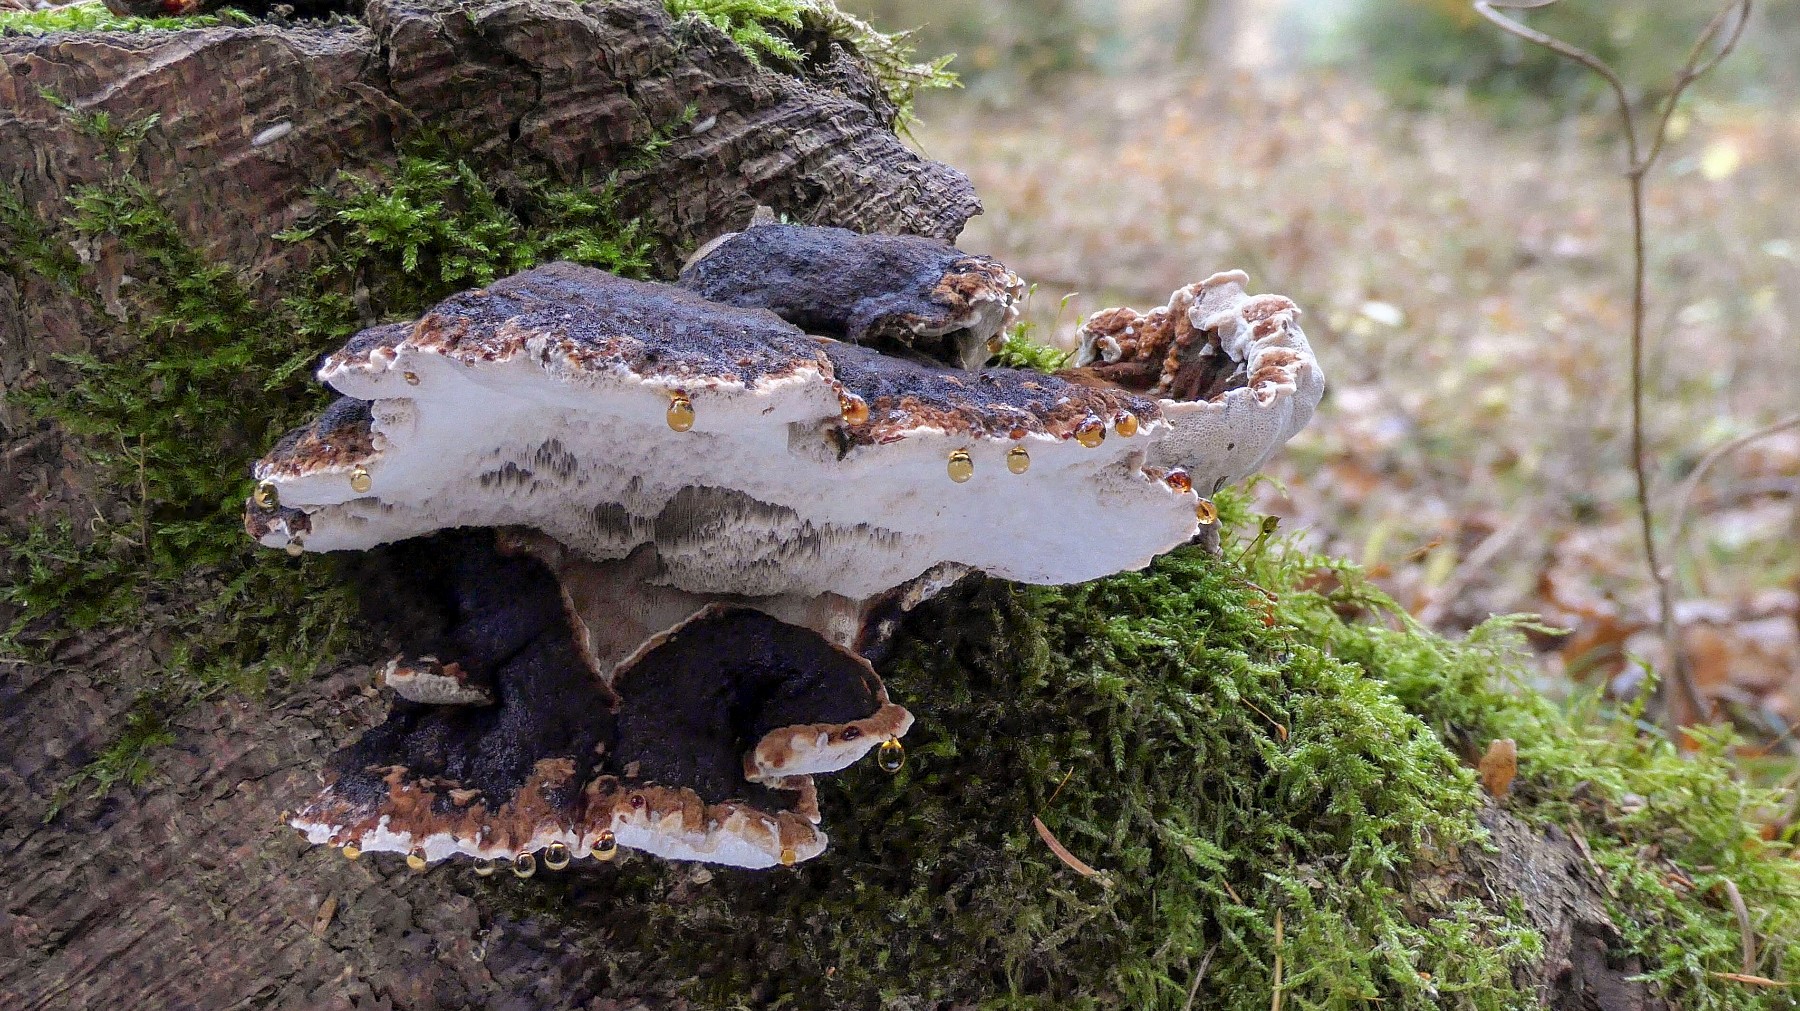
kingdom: Fungi
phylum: Basidiomycota
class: Agaricomycetes
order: Polyporales
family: Ischnodermataceae
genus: Ischnoderma
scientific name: Ischnoderma benzoinum
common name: gran-tjæreporesvamp
